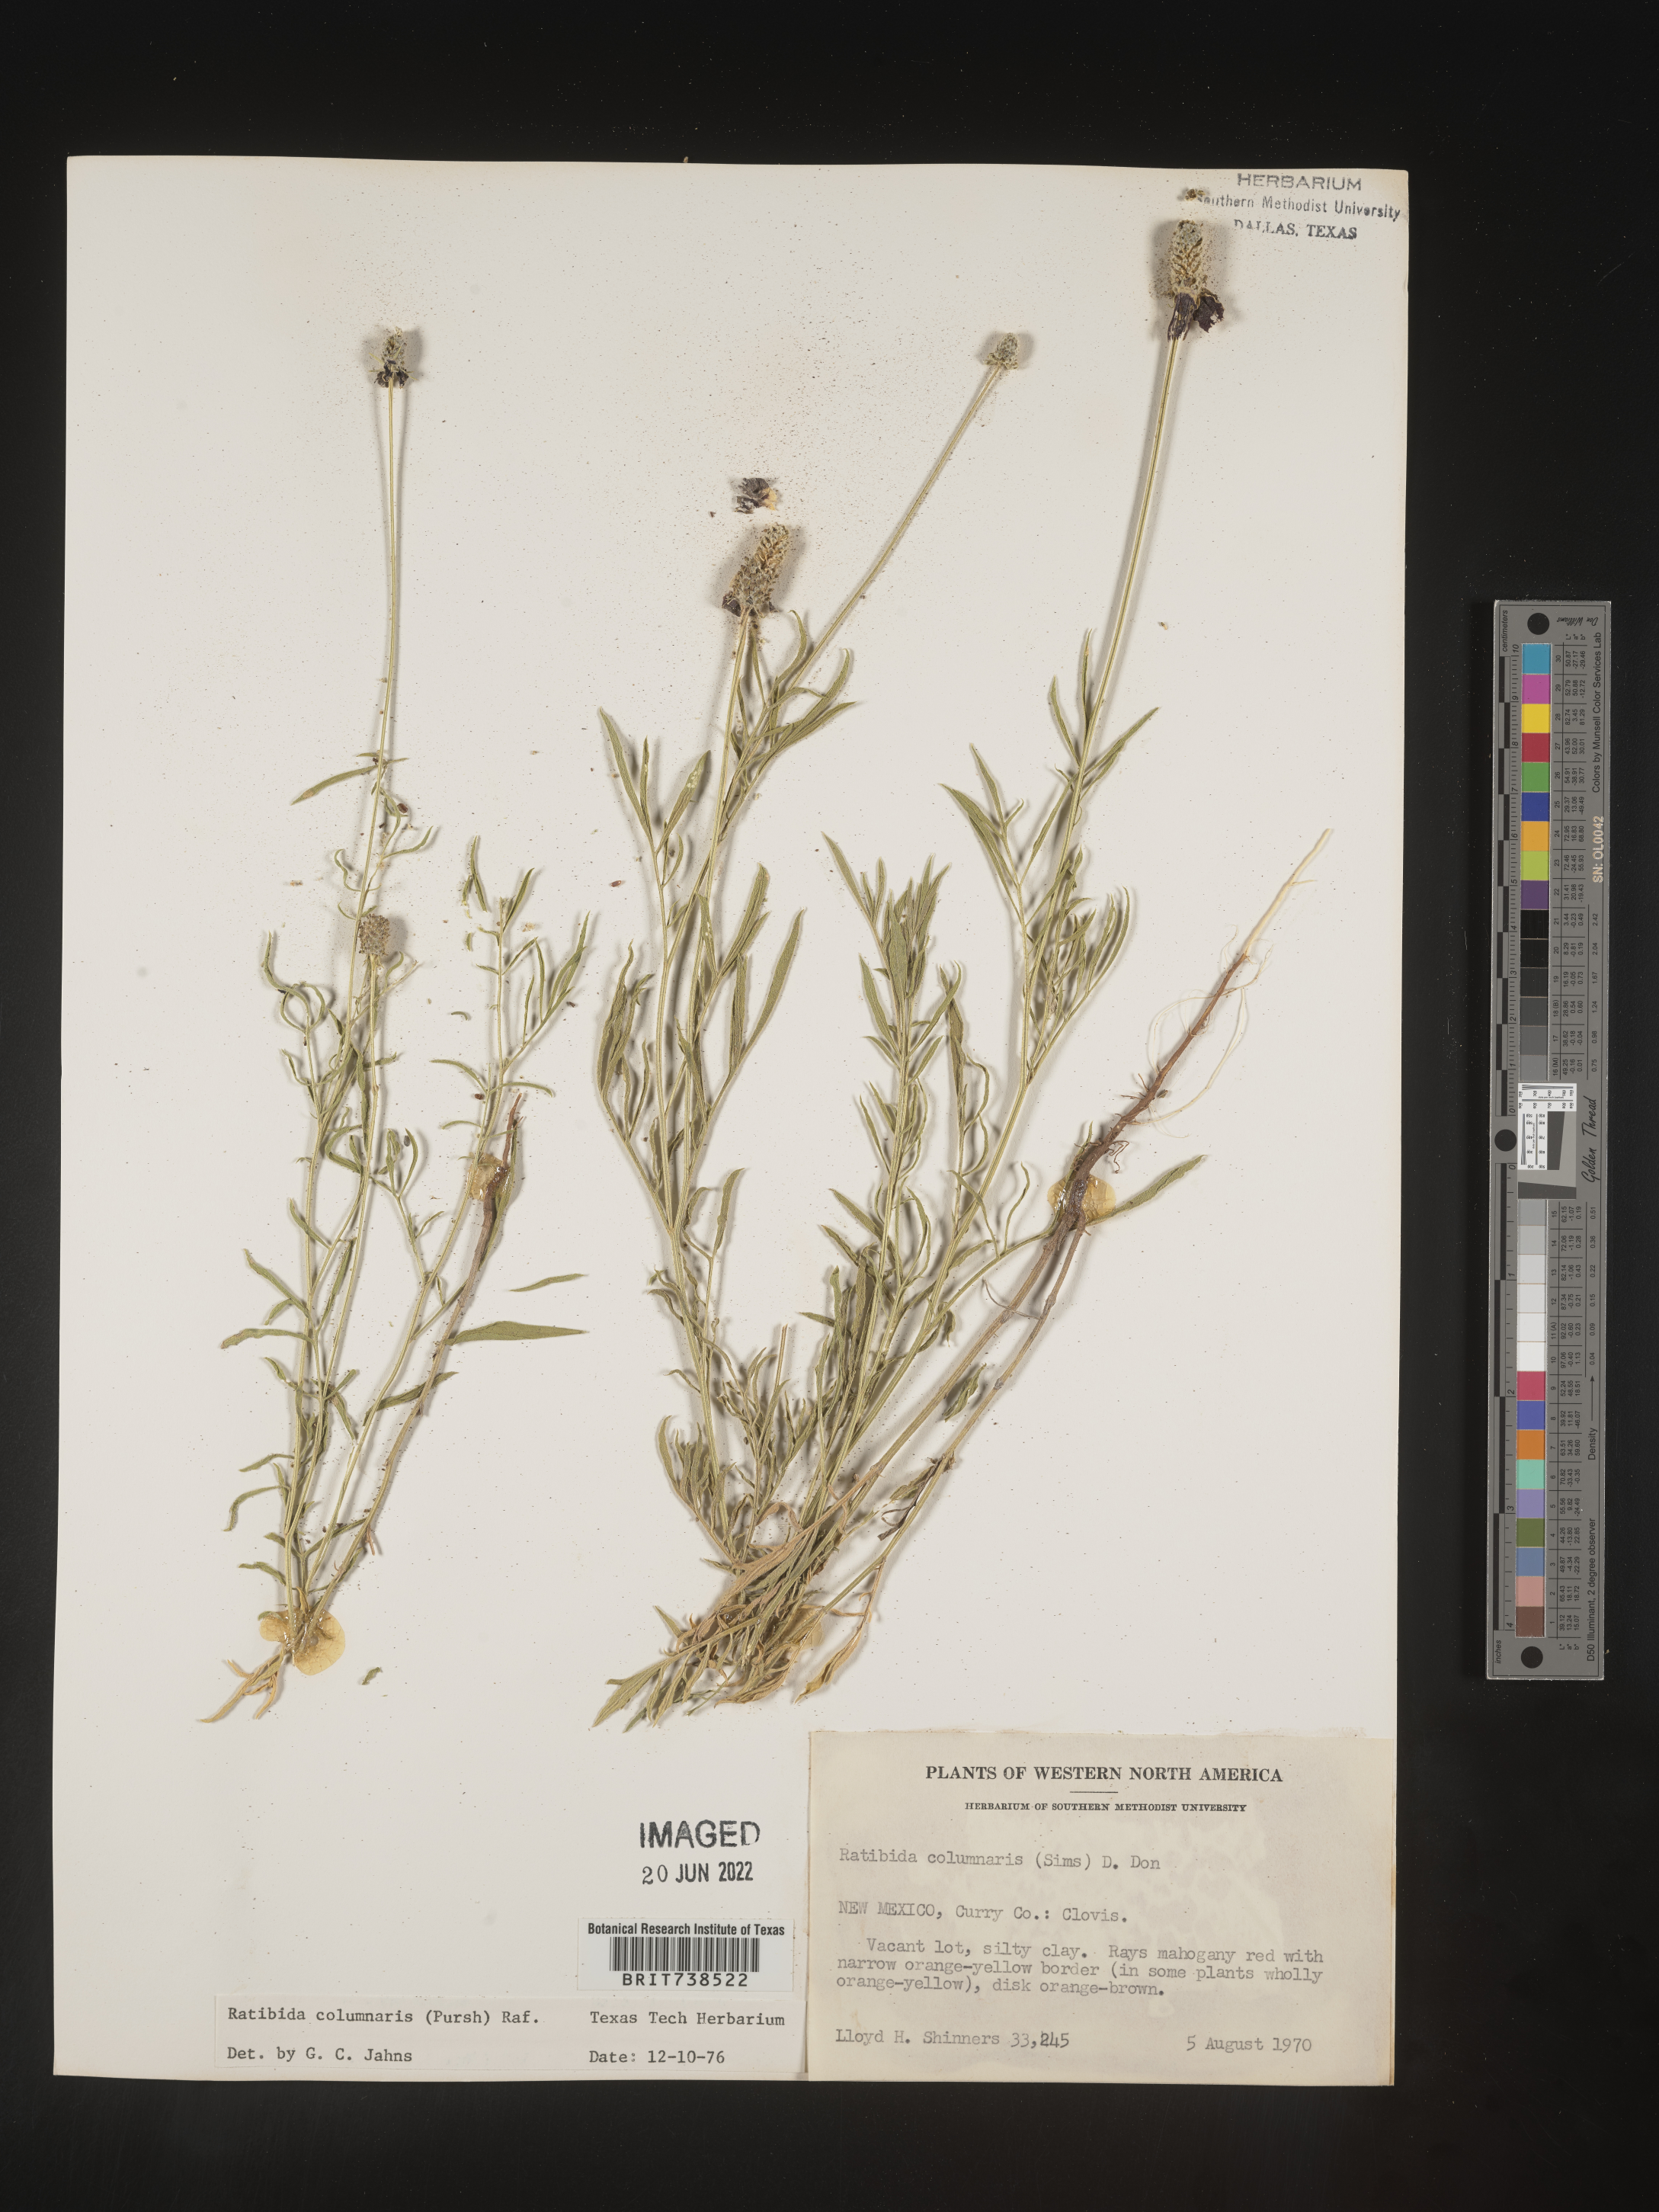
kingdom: Plantae
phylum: Tracheophyta
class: Magnoliopsida
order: Asterales
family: Asteraceae
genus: Ratibida
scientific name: Ratibida columnifera
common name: Prairie coneflower
